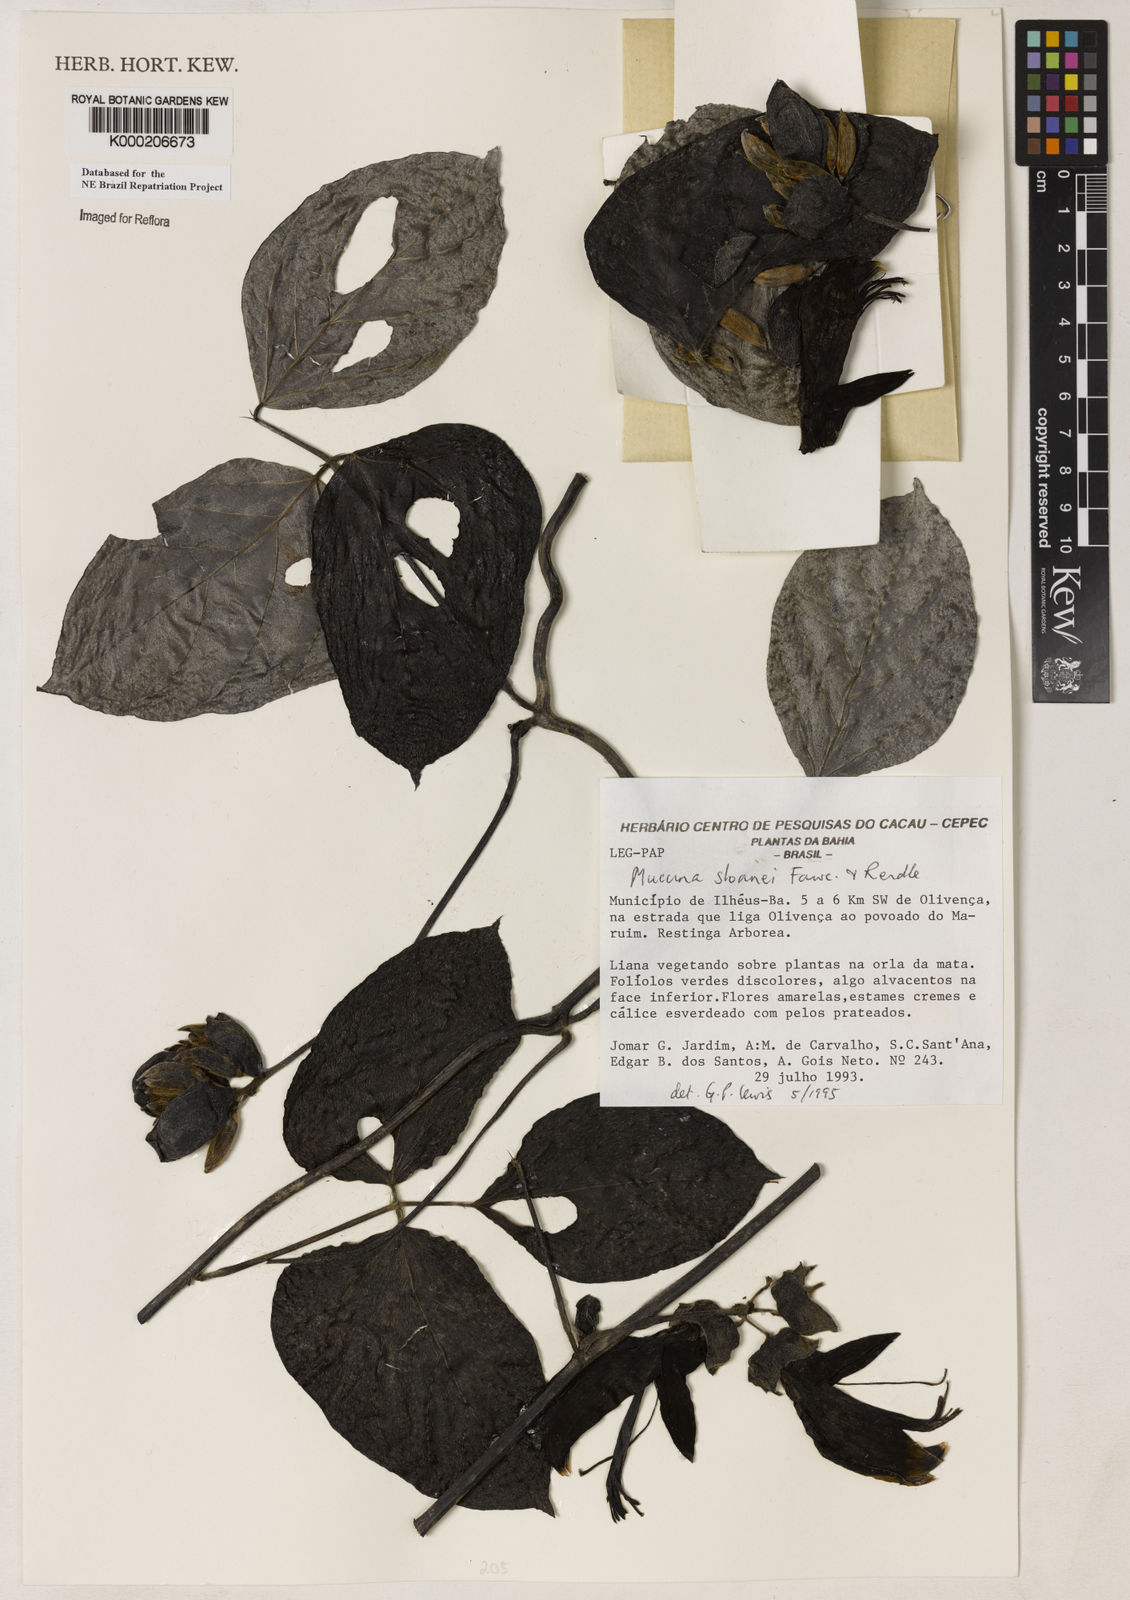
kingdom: Plantae
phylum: Tracheophyta
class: Magnoliopsida
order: Fabales
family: Fabaceae
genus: Mucuna
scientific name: Mucuna sloanei
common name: Horse-eye bean
